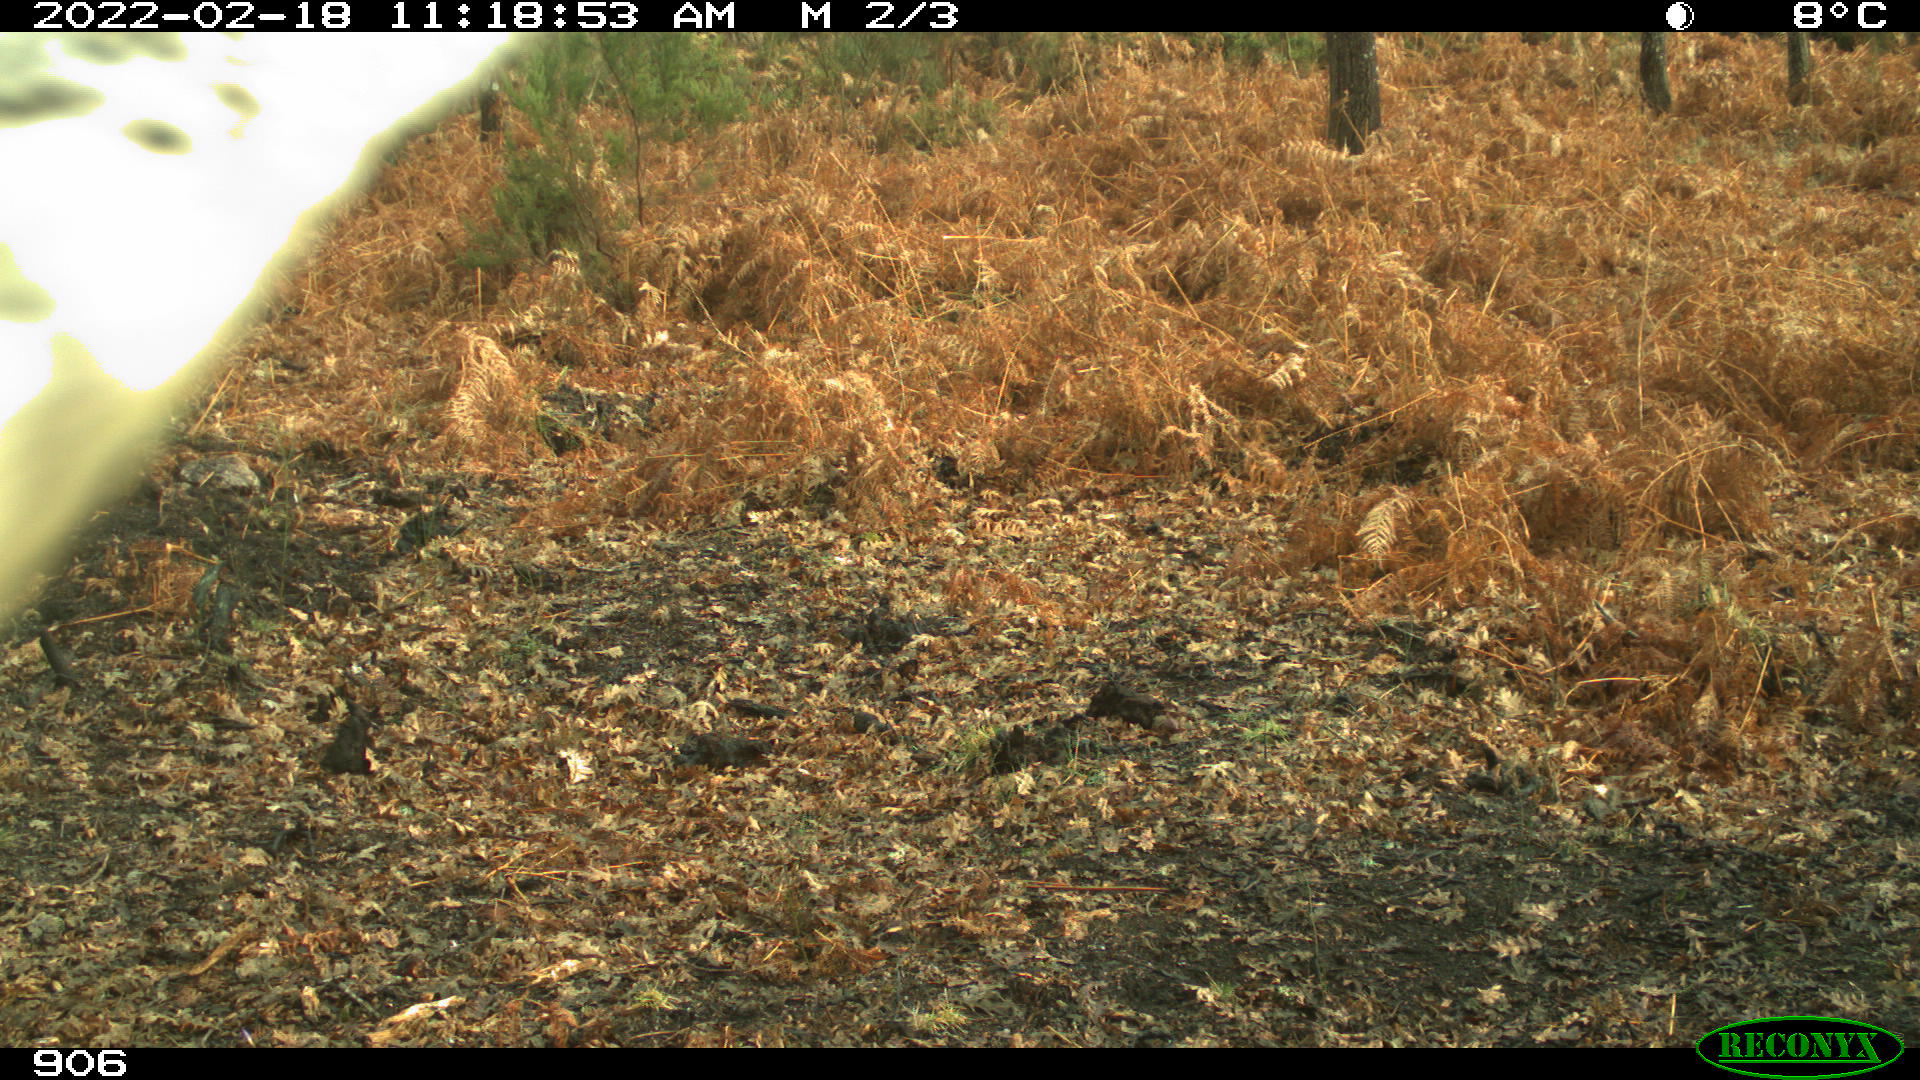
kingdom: Animalia
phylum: Chordata
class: Mammalia
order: Artiodactyla
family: Bovidae
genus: Bos
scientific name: Bos taurus
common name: Domesticated cattle
